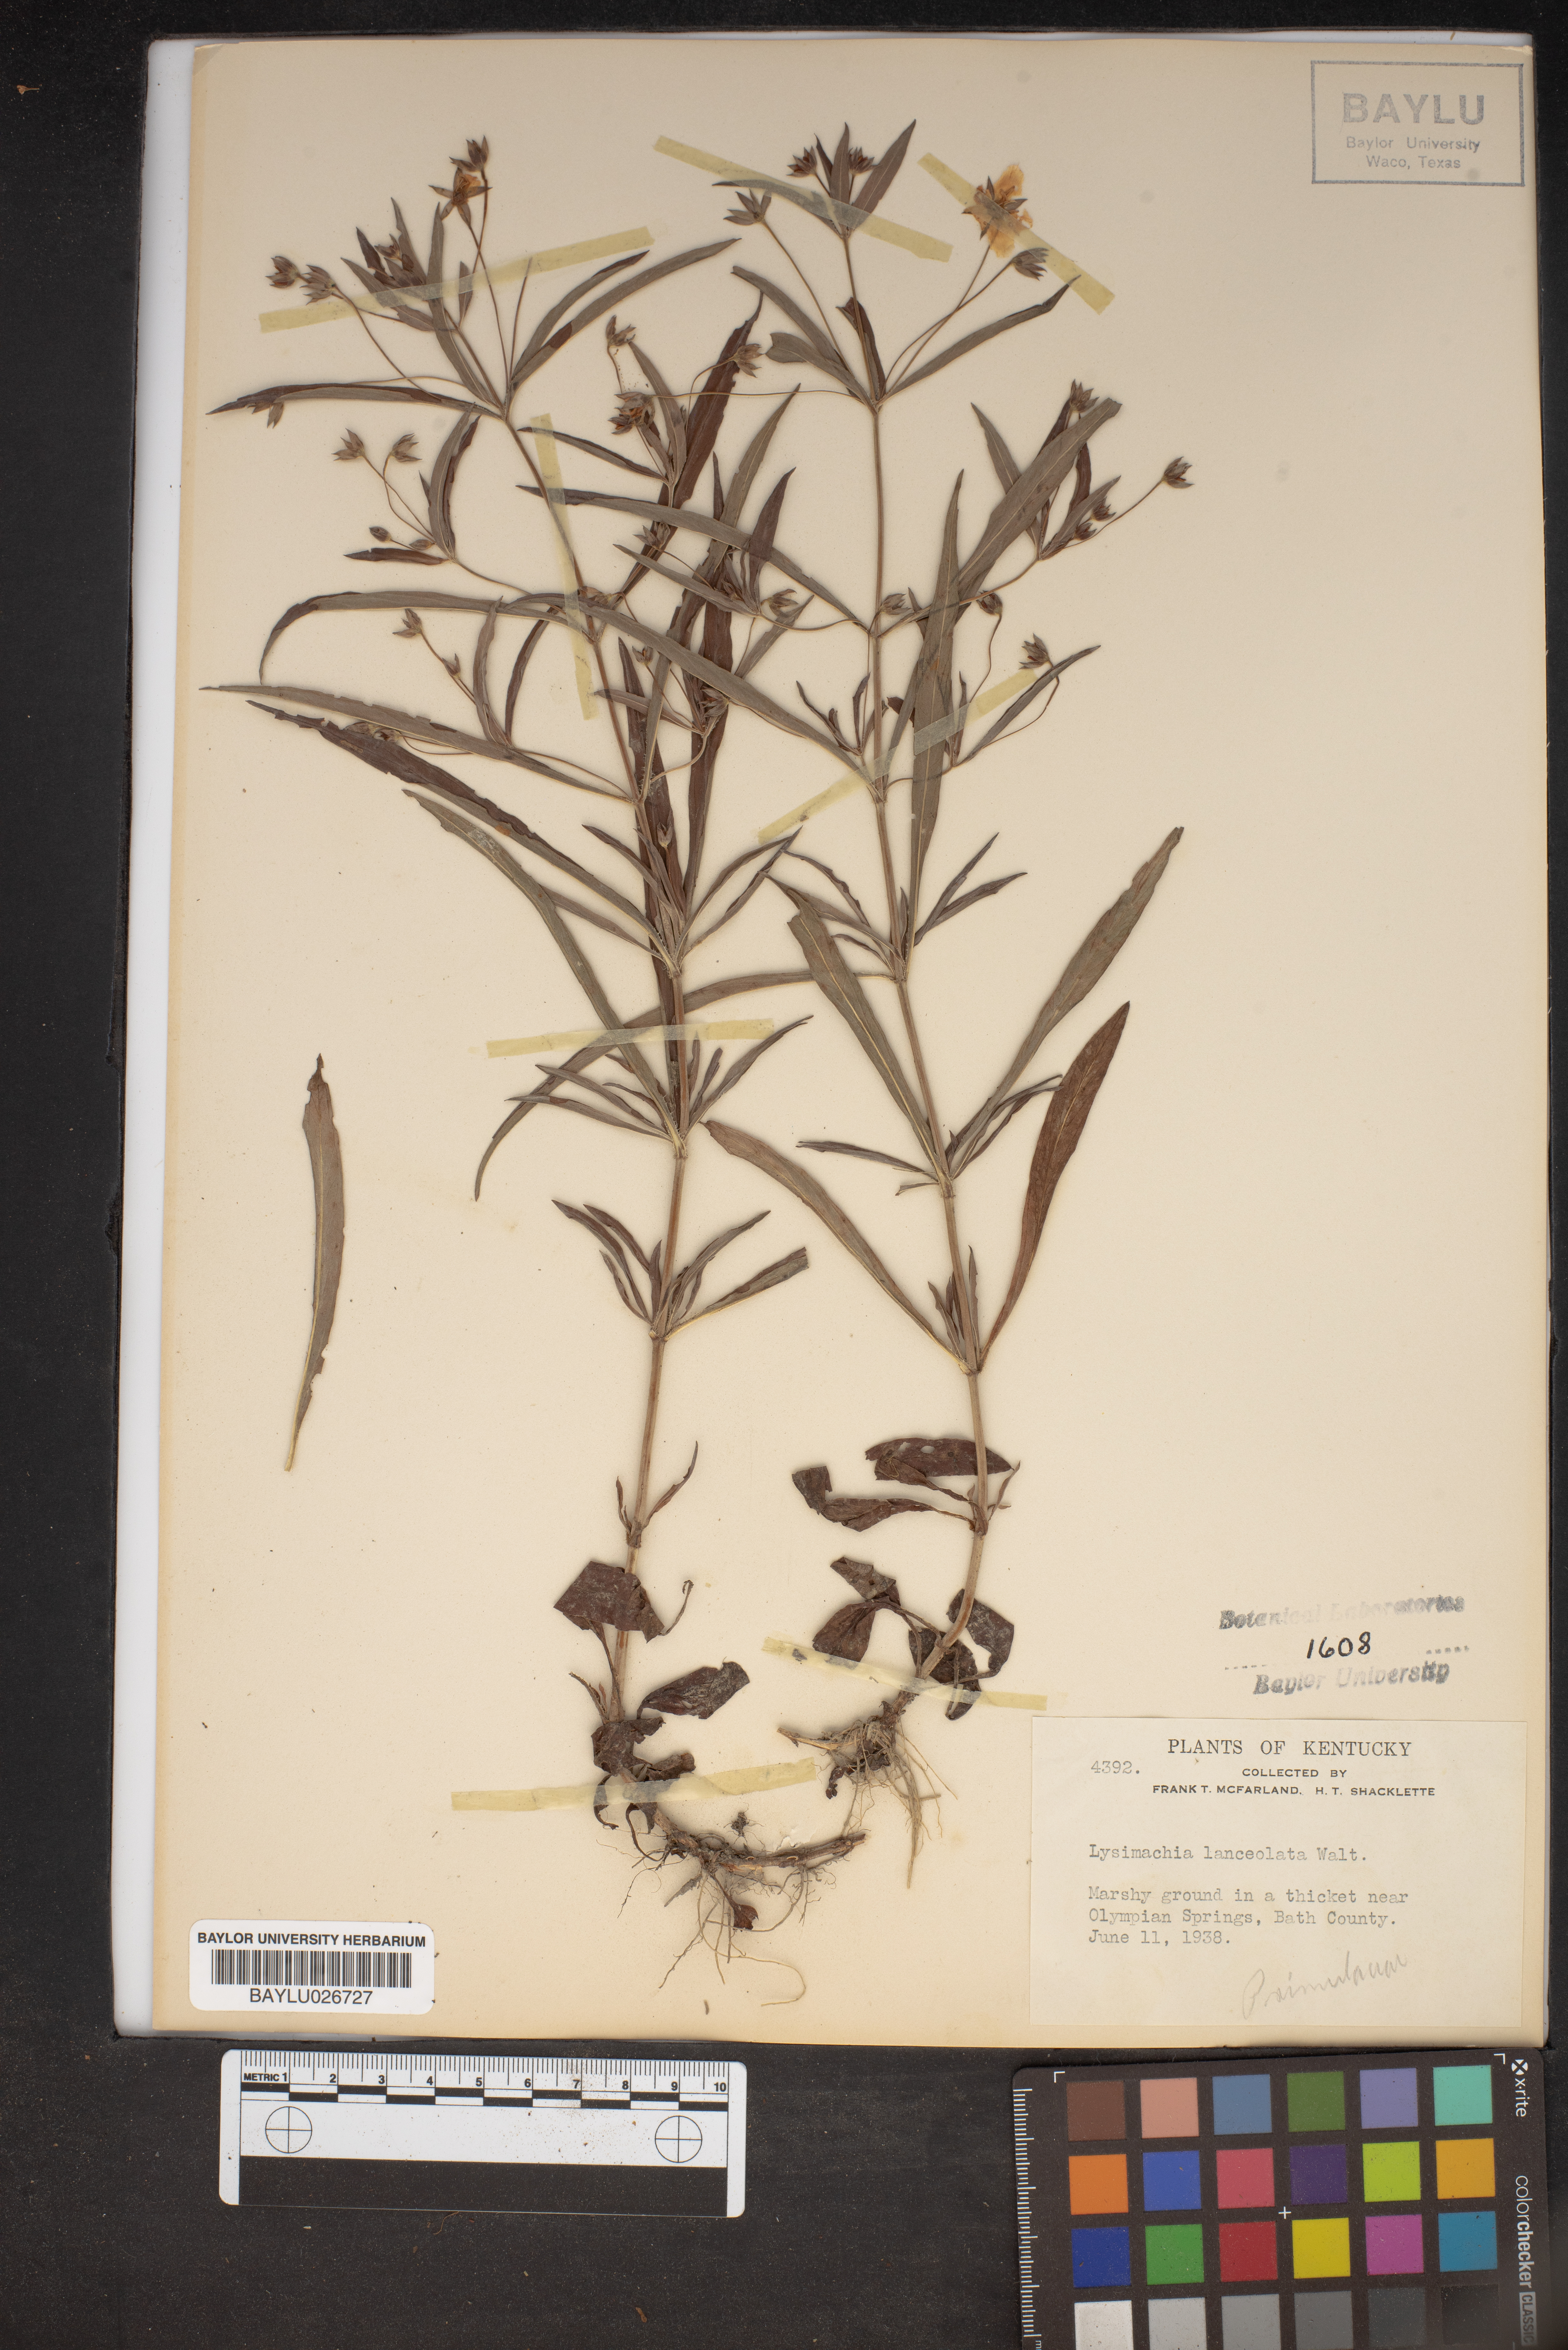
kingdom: Plantae
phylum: Tracheophyta
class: Magnoliopsida
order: Ericales
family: Primulaceae
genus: Lysimachia
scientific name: Lysimachia lanceolata
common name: Lance-leaved loosestrife
